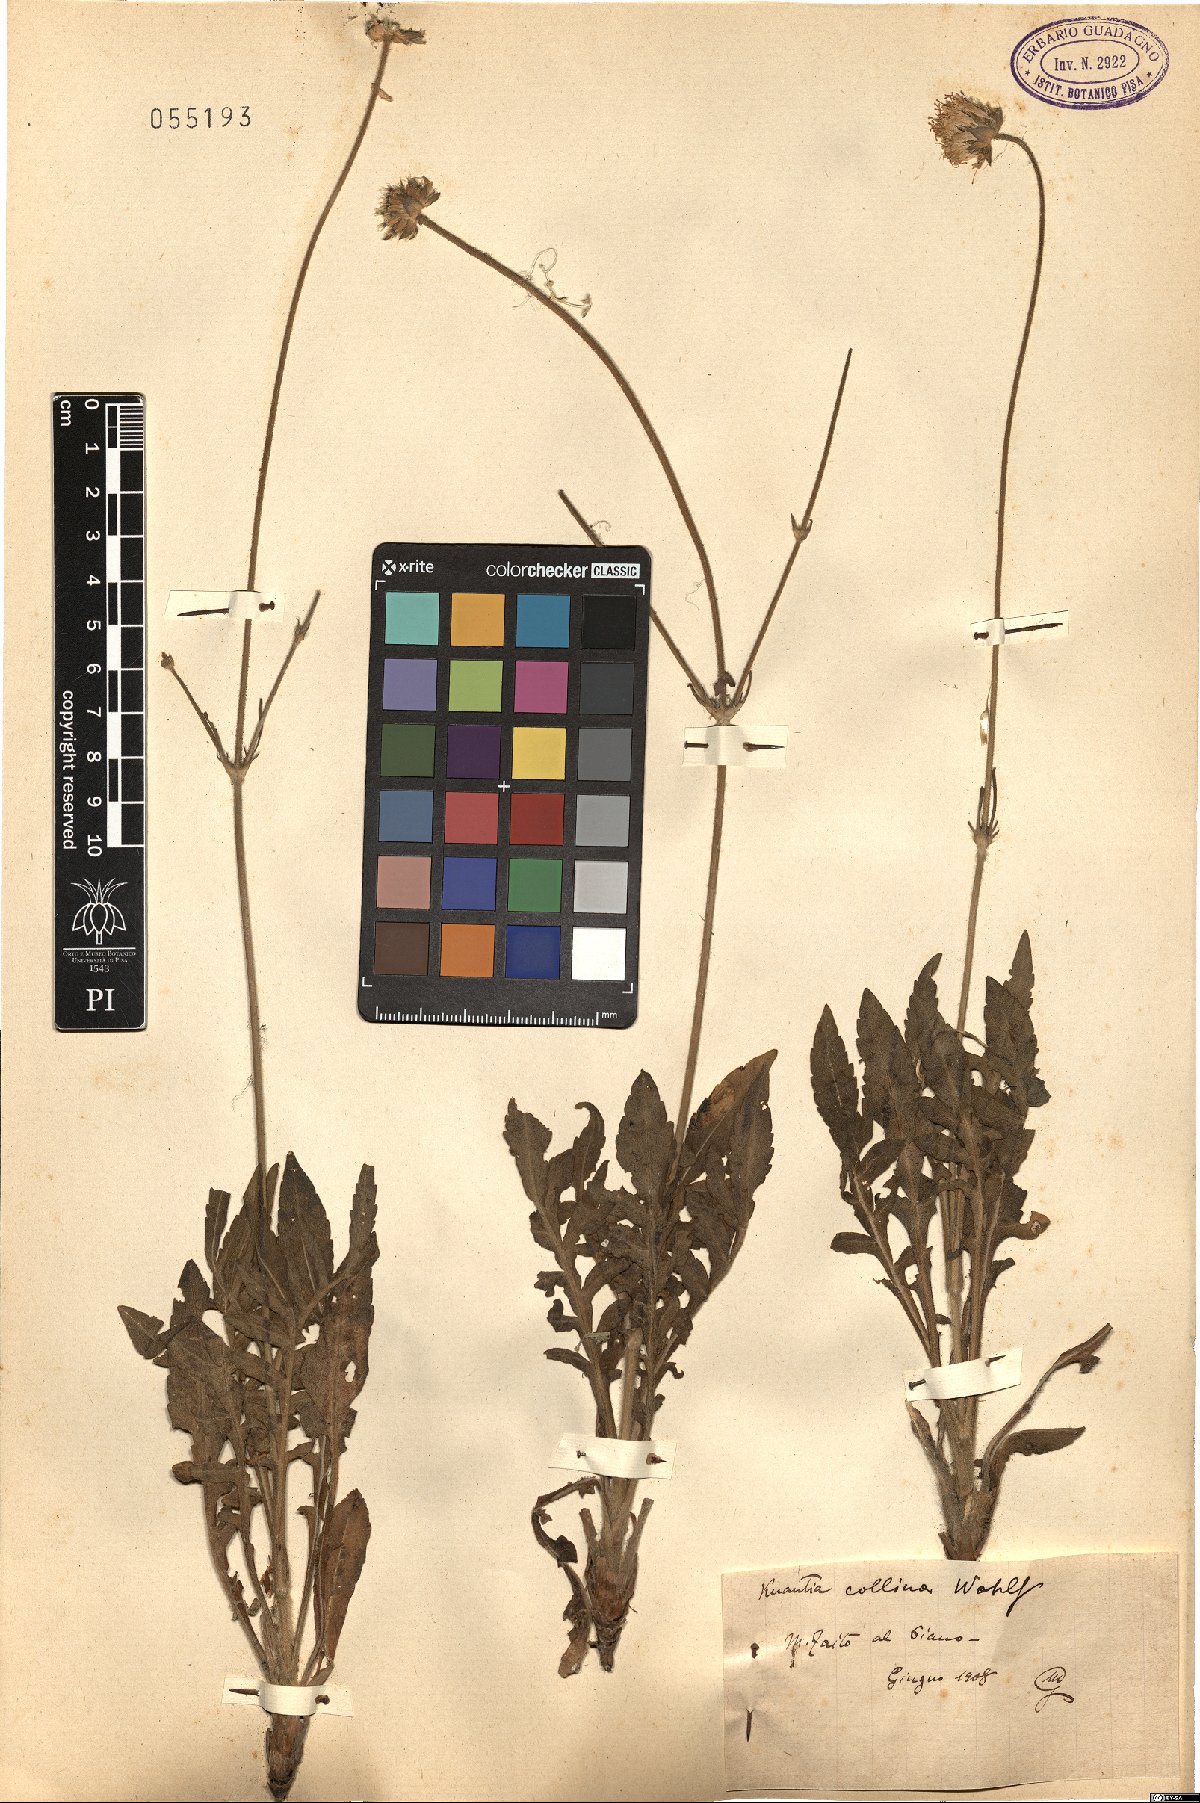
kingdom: Plantae
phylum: Tracheophyta
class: Magnoliopsida
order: Dipsacales
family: Caprifoliaceae
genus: Knautia
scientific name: Knautia collina
